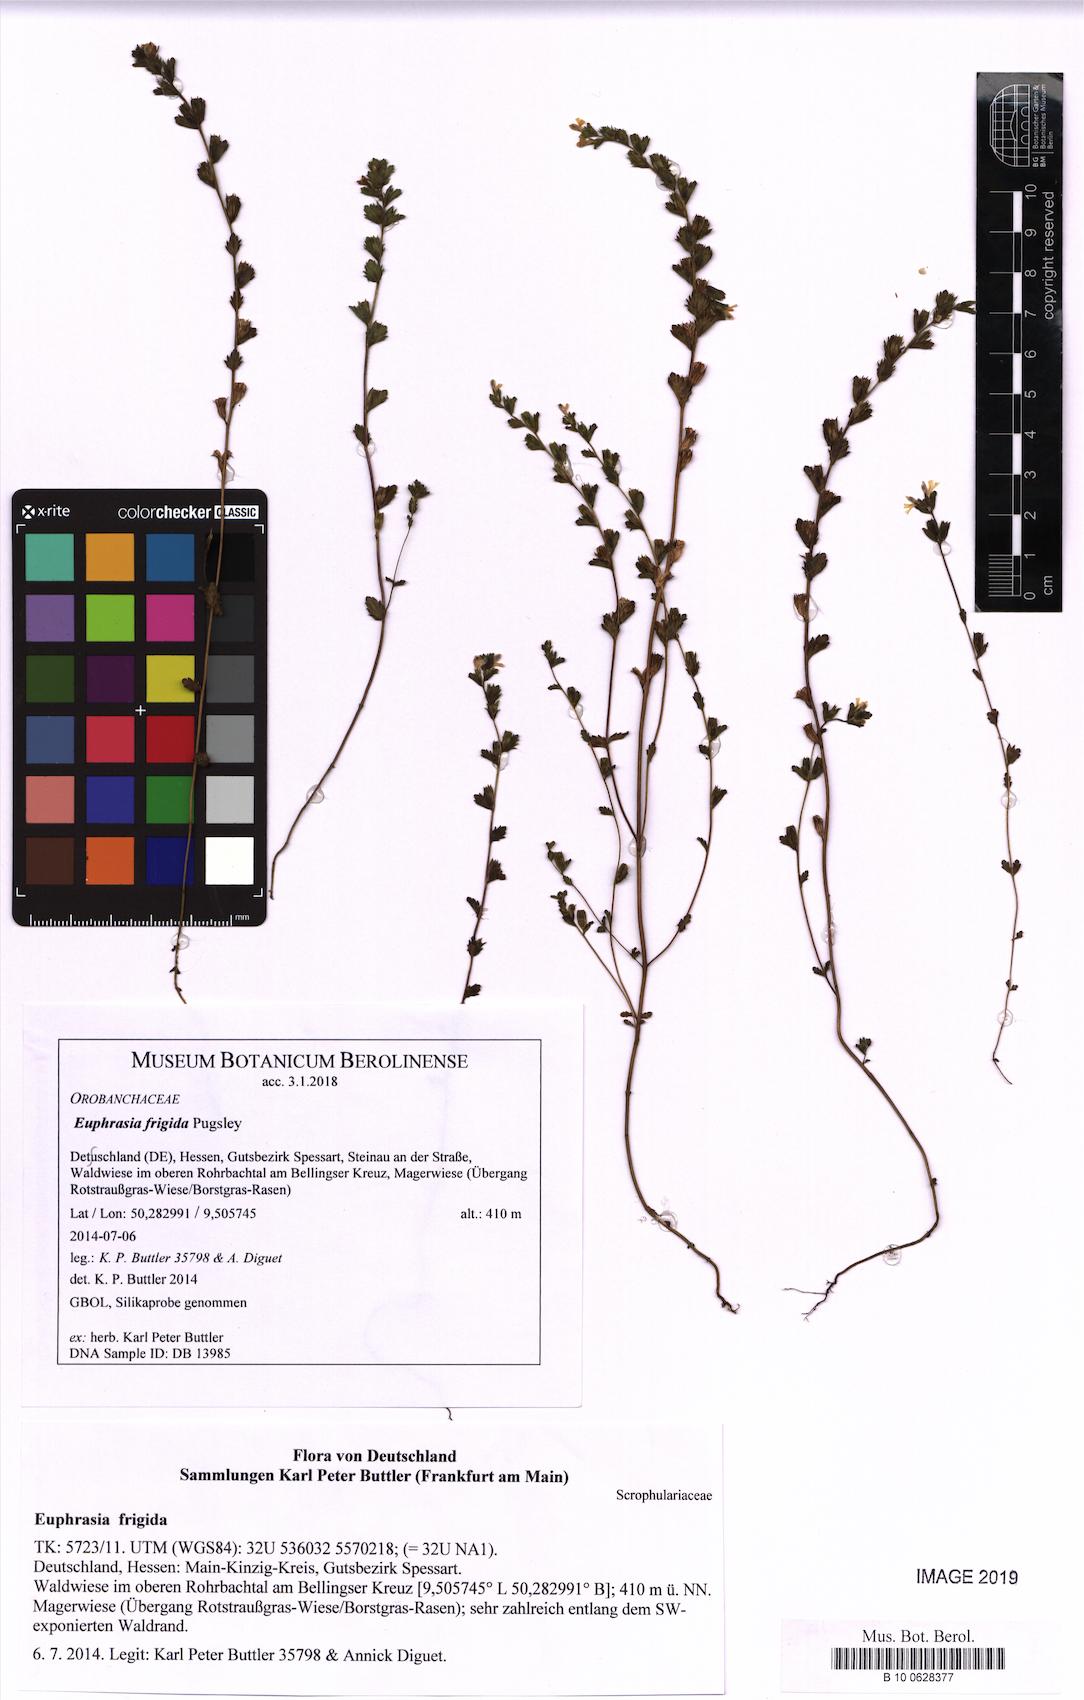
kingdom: Plantae
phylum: Tracheophyta
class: Magnoliopsida
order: Lamiales
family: Orobanchaceae
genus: Euphrasia
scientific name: Euphrasia frigida
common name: An eyebright
